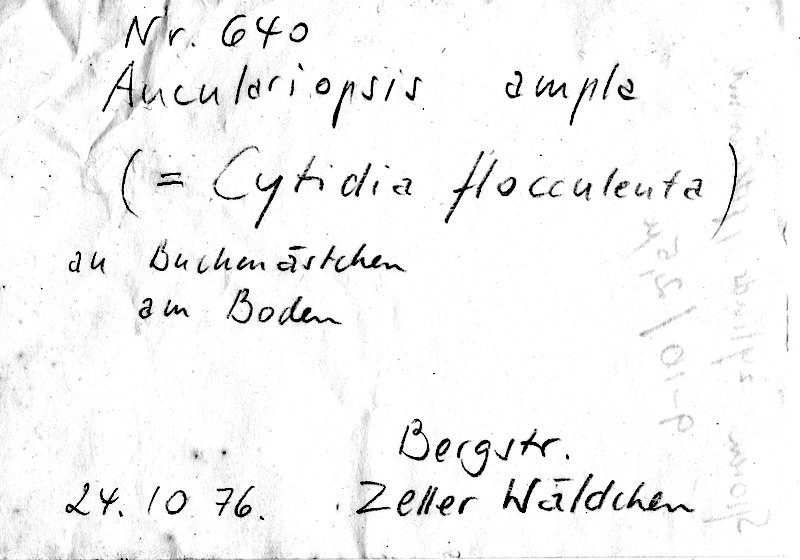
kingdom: Plantae
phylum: Tracheophyta
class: Magnoliopsida
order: Fagales
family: Fagaceae
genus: Fagus
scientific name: Fagus sylvatica
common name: Beech
